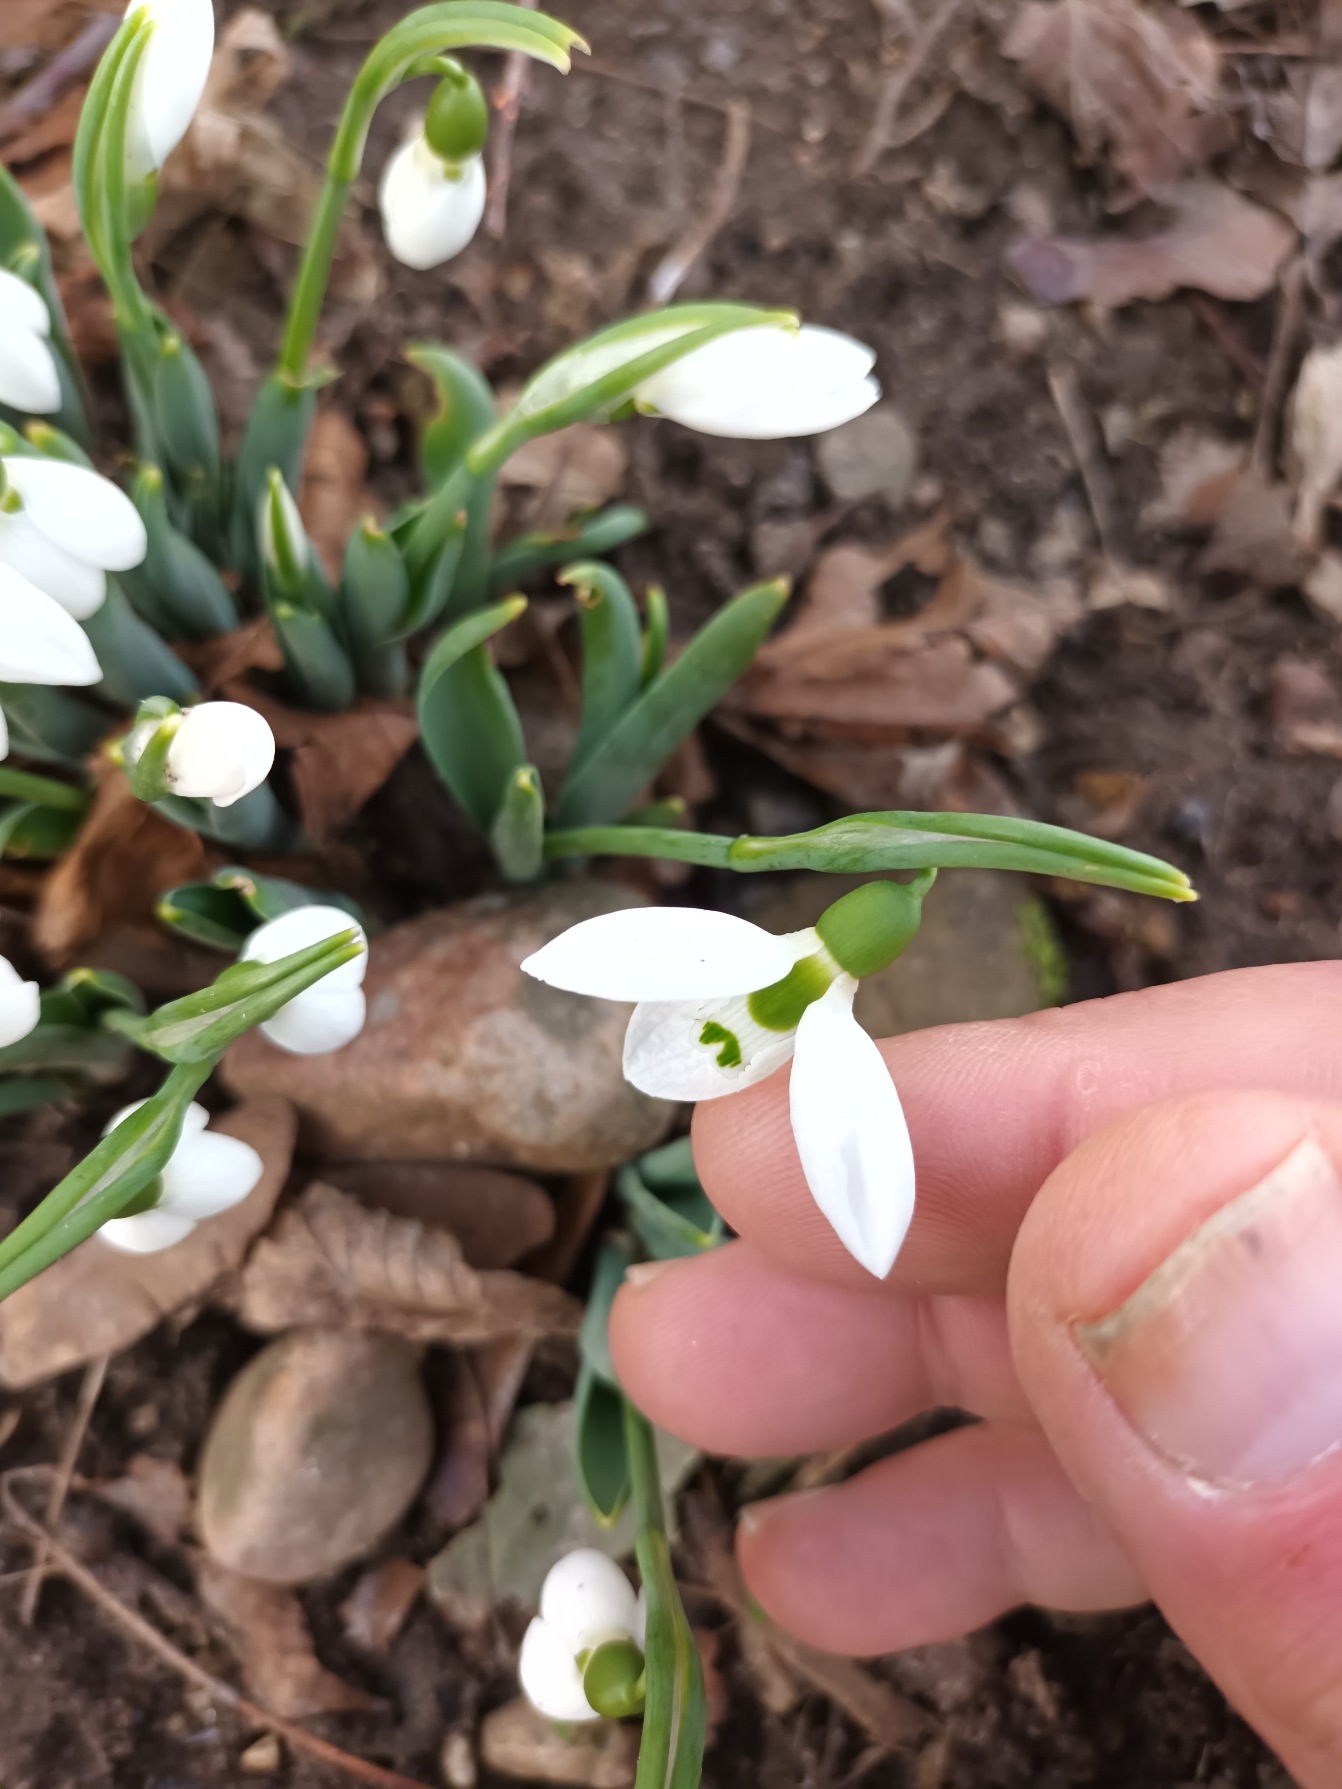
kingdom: Plantae
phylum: Tracheophyta
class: Liliopsida
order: Asparagales
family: Amaryllidaceae
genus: Galanthus
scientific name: Galanthus elwesii
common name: Tyrkisk vintergæk
